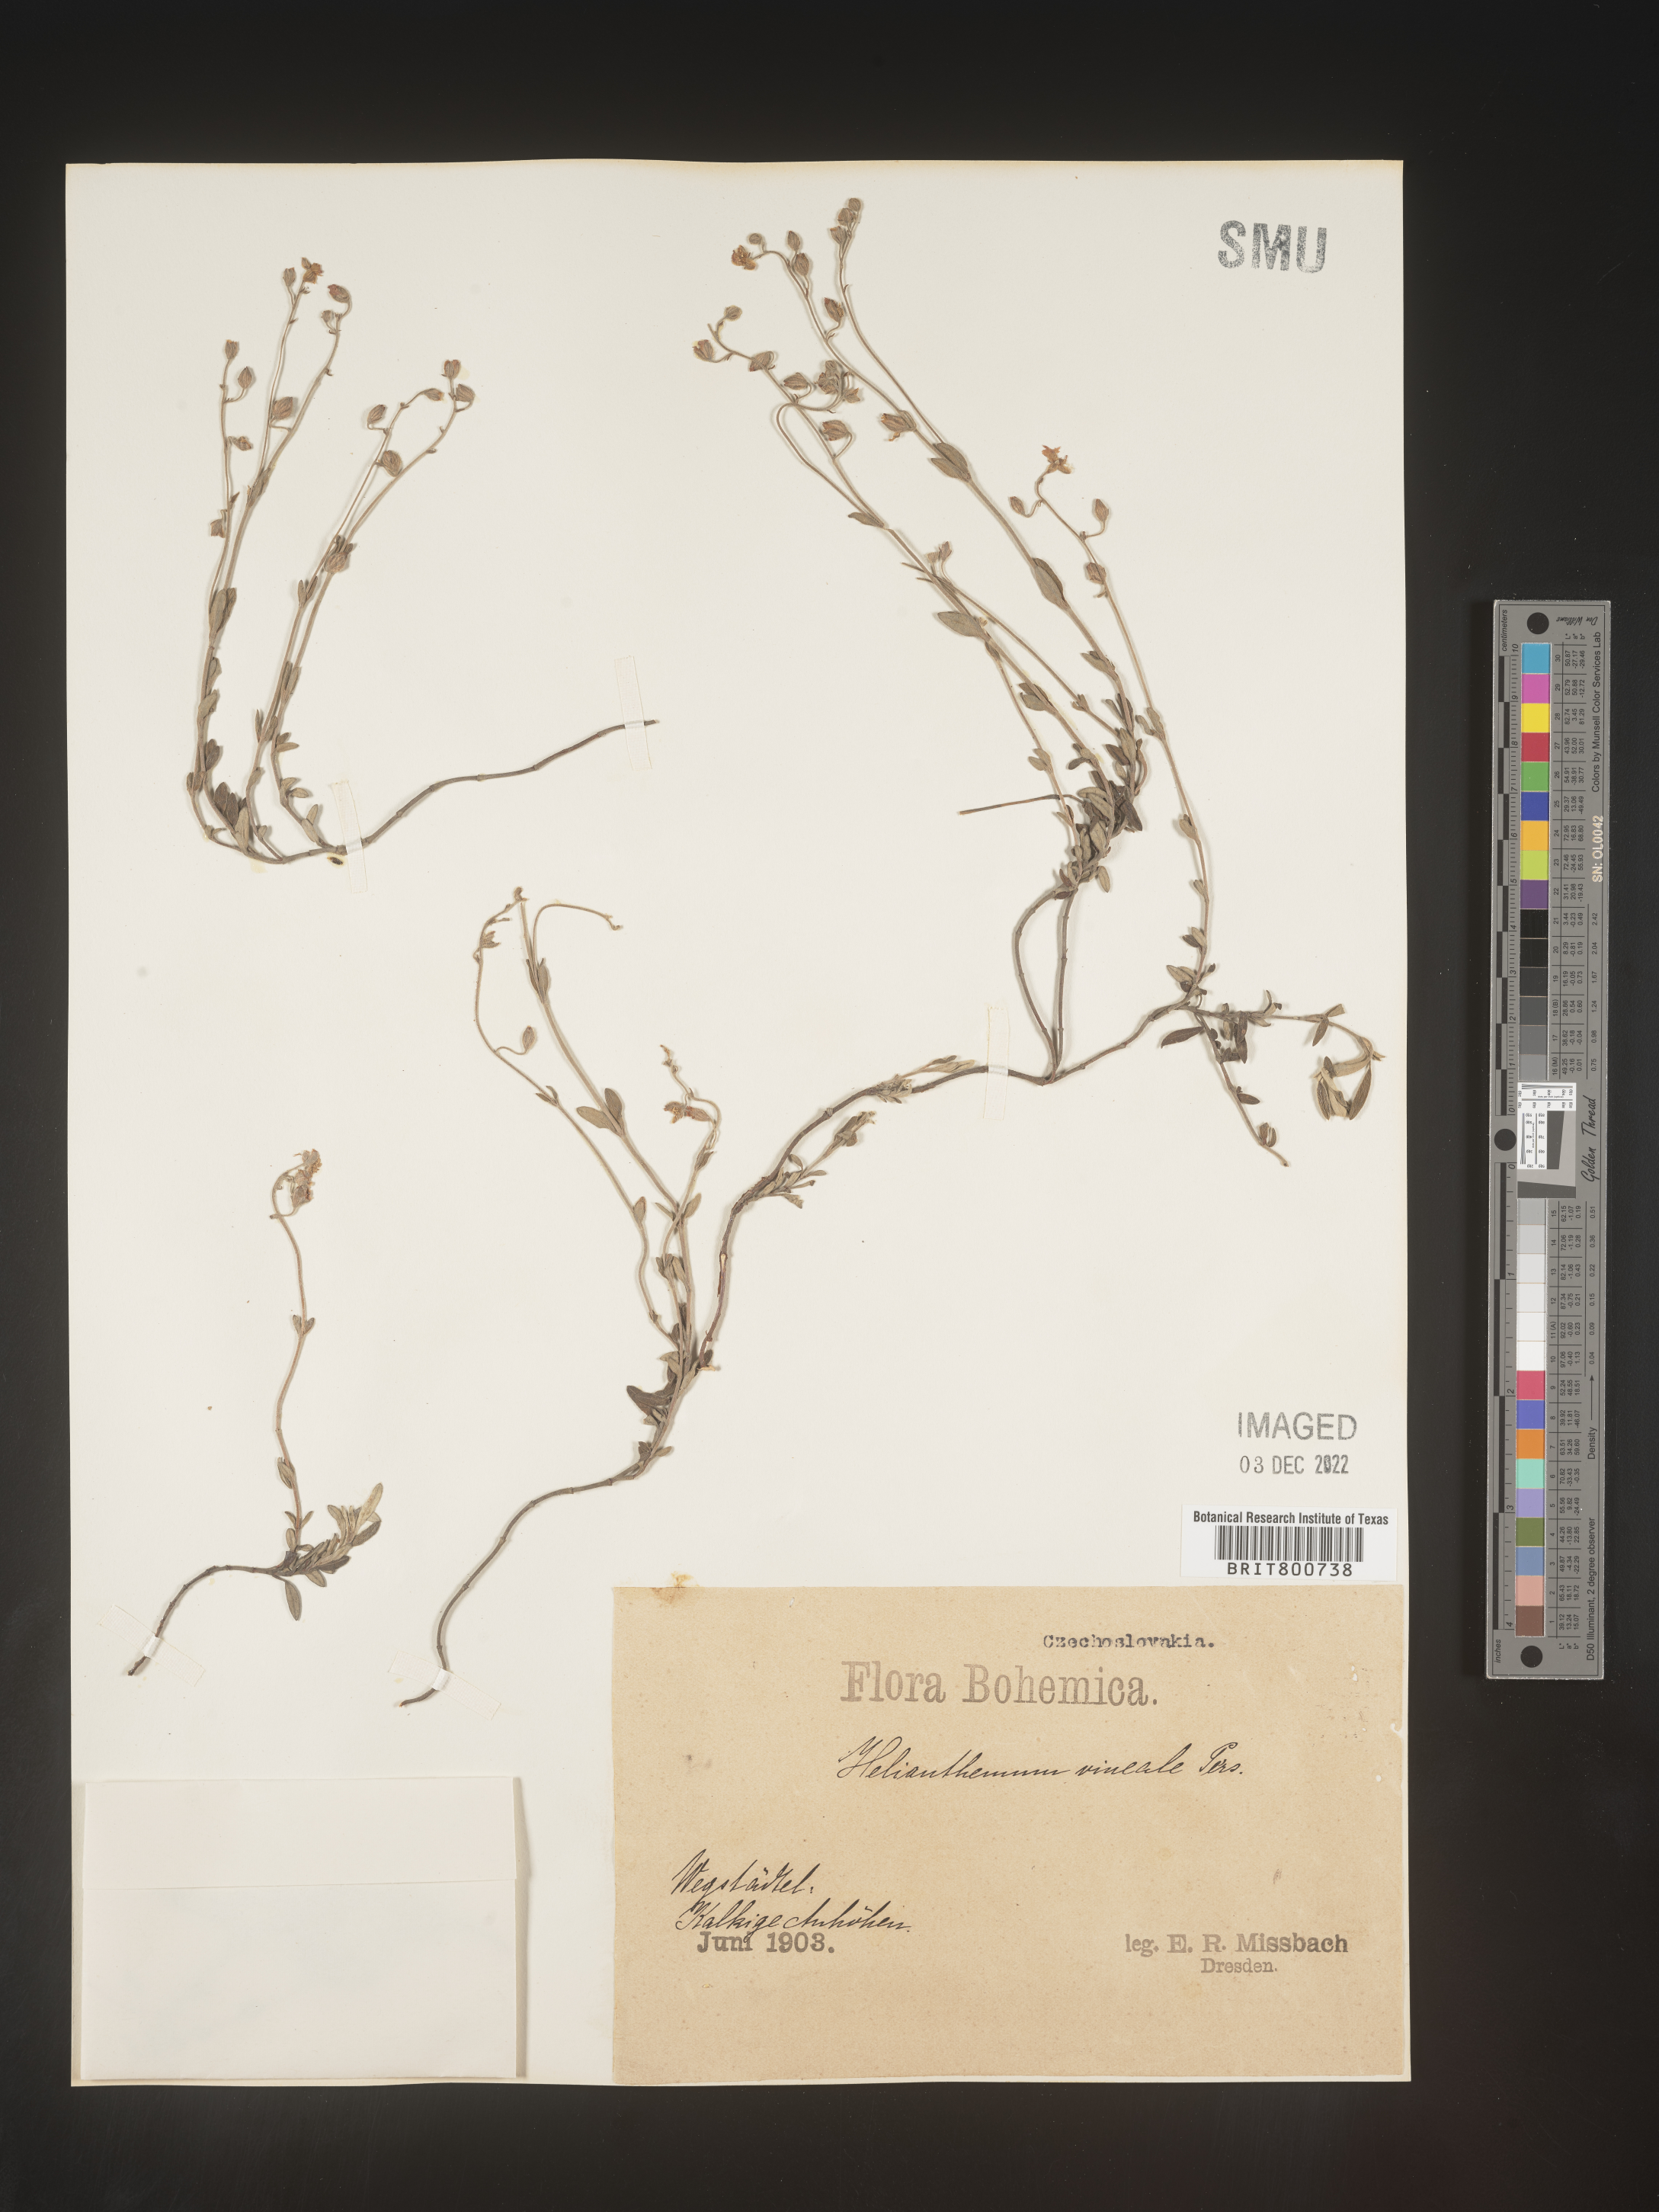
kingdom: Plantae
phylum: Tracheophyta
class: Magnoliopsida
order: Malvales
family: Cistaceae
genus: Helianthemum
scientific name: Helianthemum
